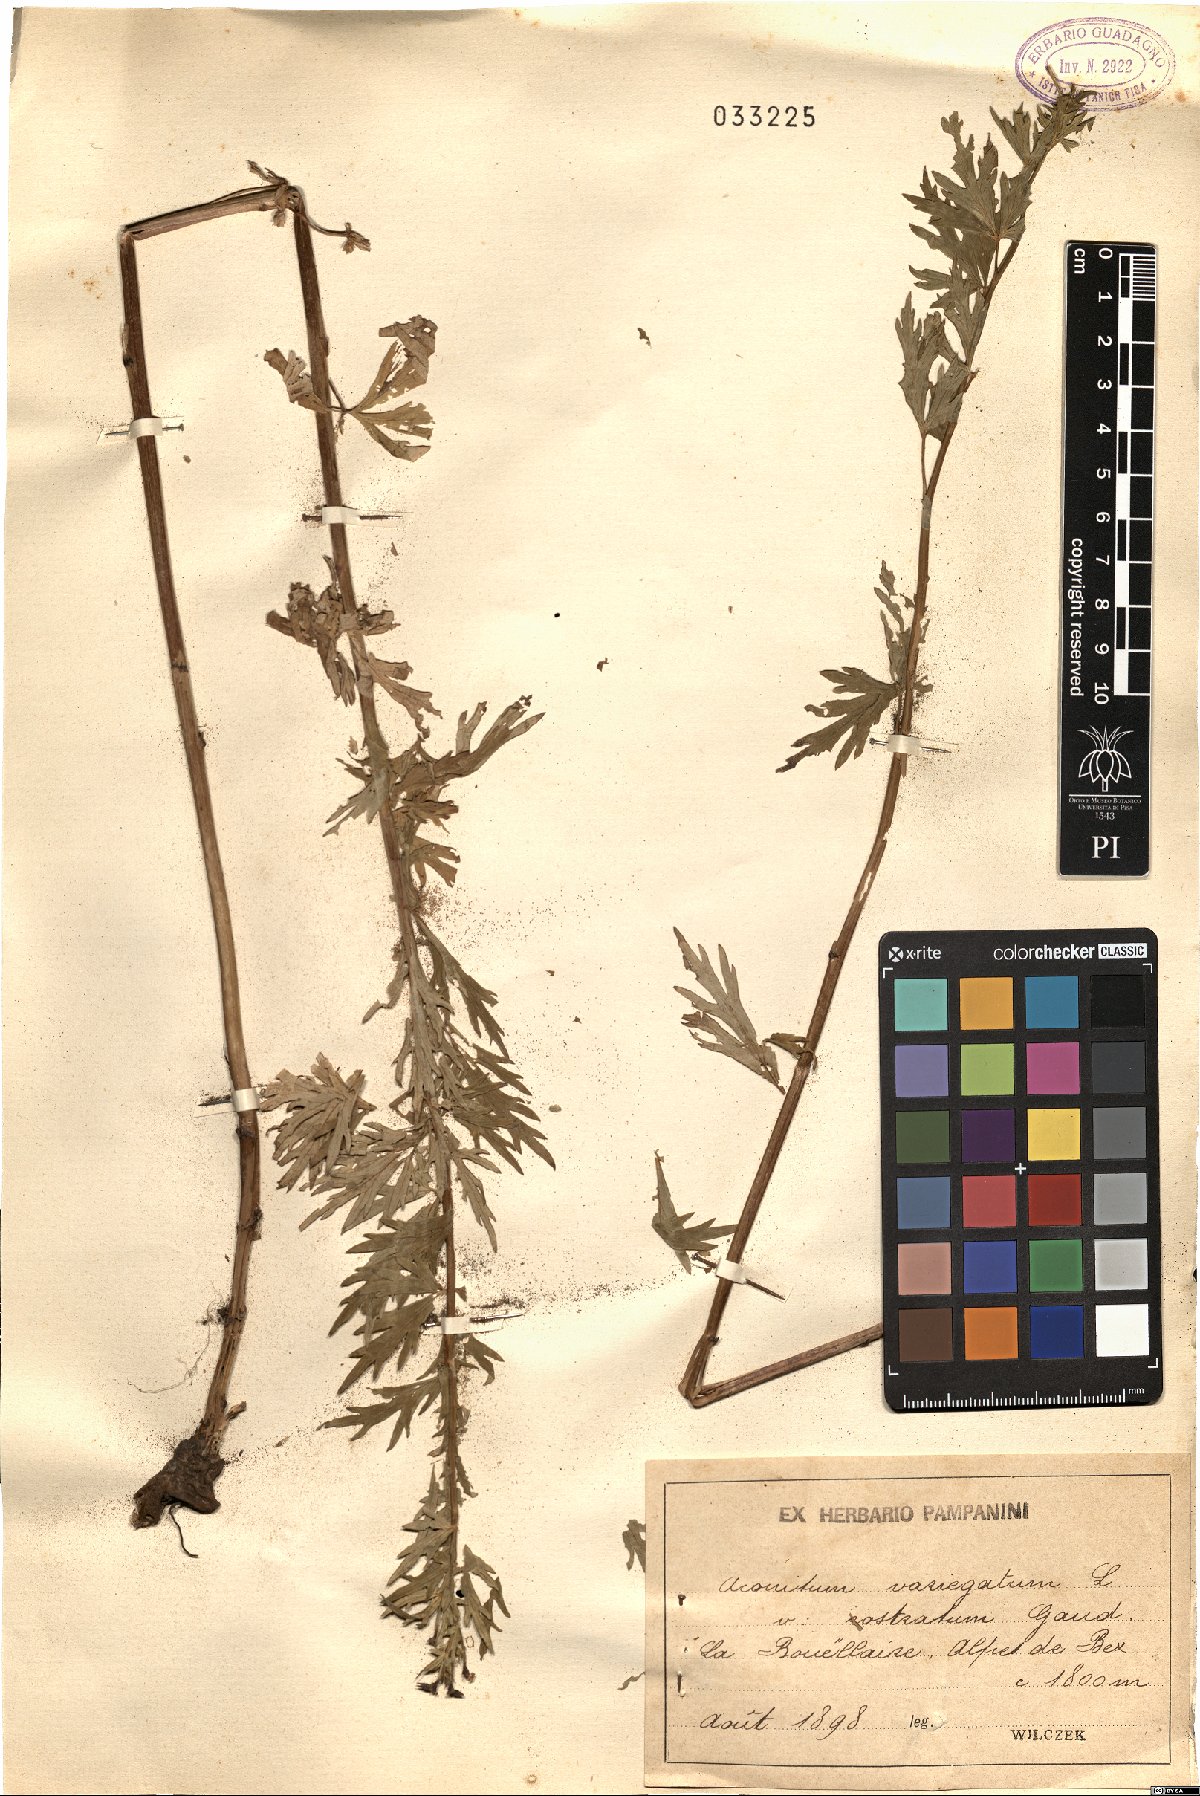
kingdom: Plantae
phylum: Tracheophyta
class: Magnoliopsida
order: Ranunculales
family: Ranunculaceae
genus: Aconitum
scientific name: Aconitum variegatum
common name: Manchurian monkshood
